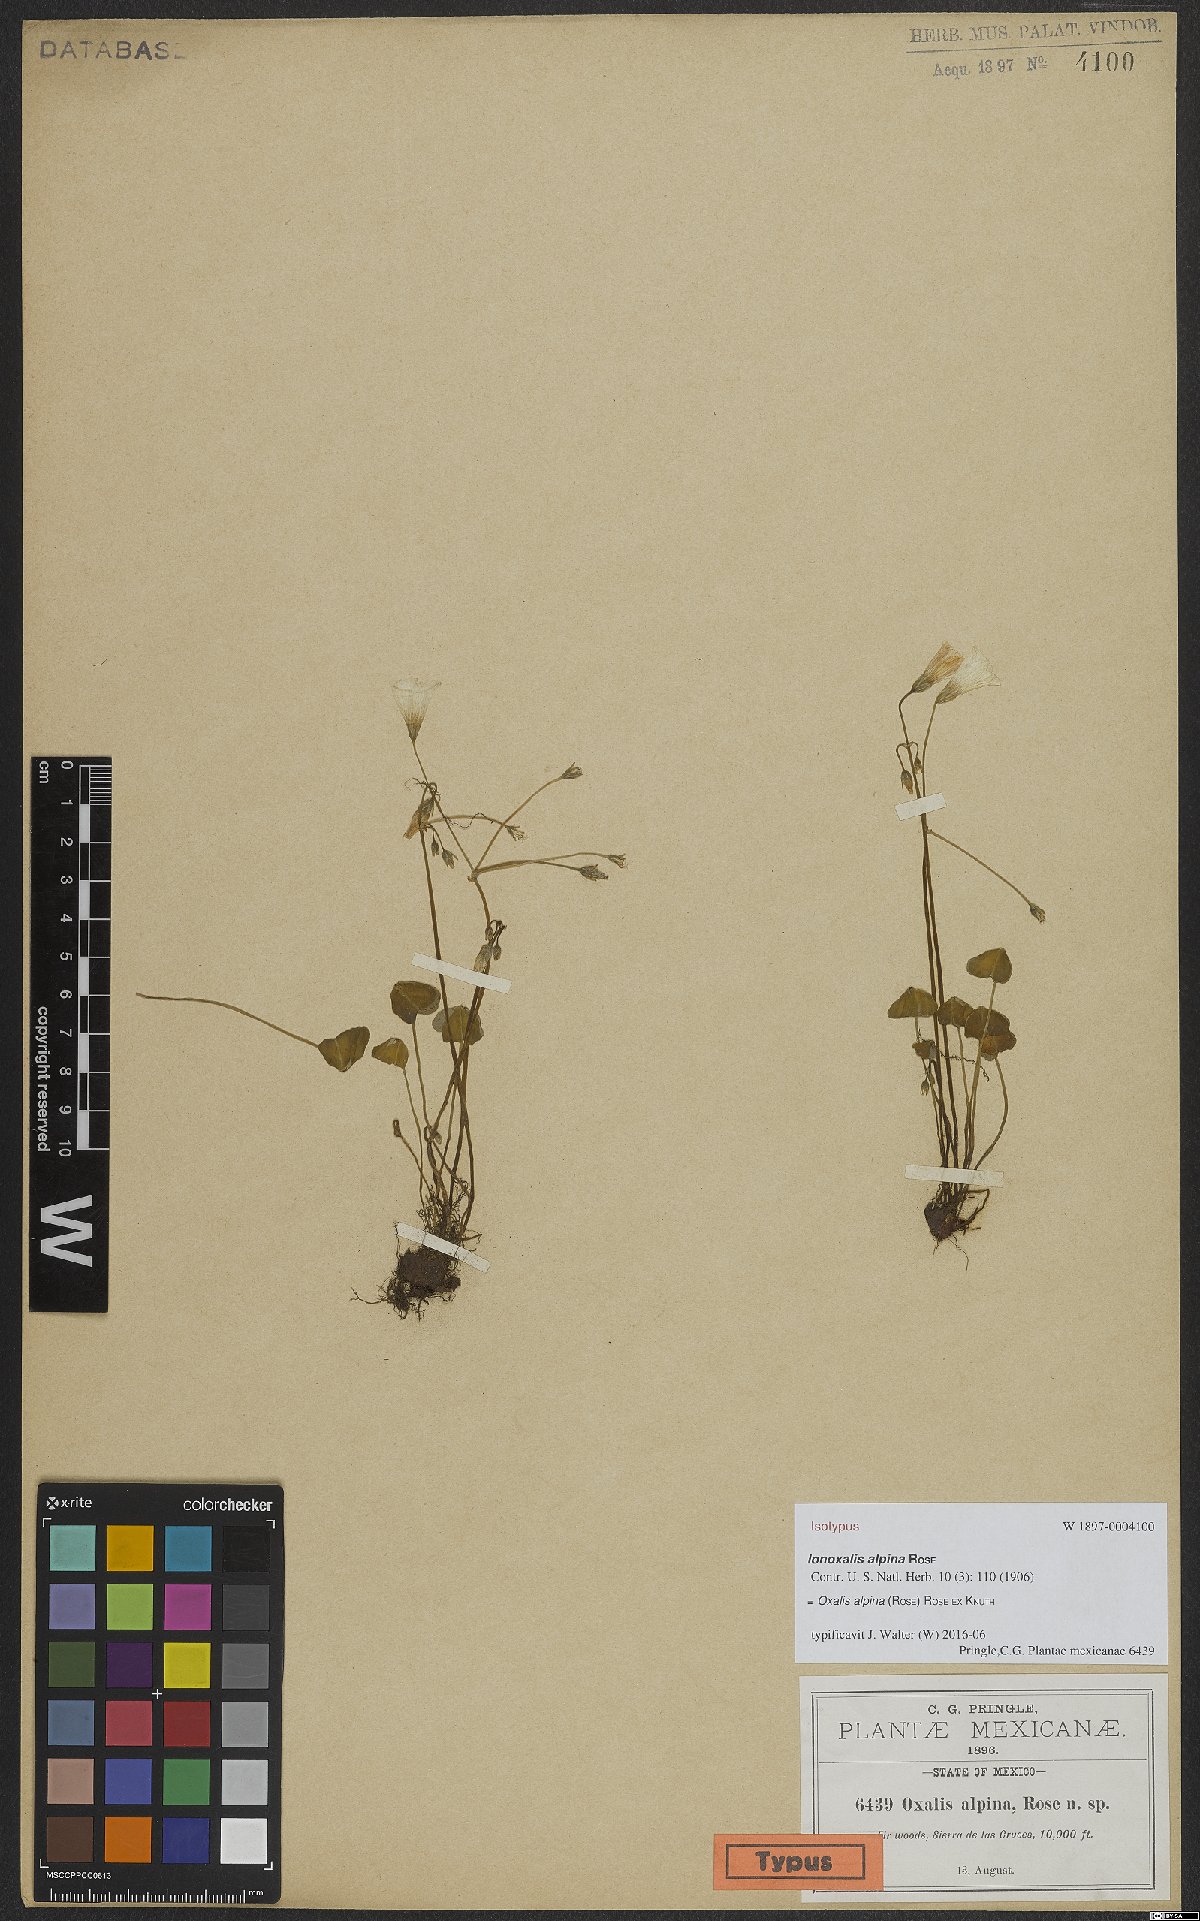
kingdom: Plantae
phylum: Tracheophyta
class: Magnoliopsida
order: Oxalidales
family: Oxalidaceae
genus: Oxalis
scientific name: Oxalis alpina
